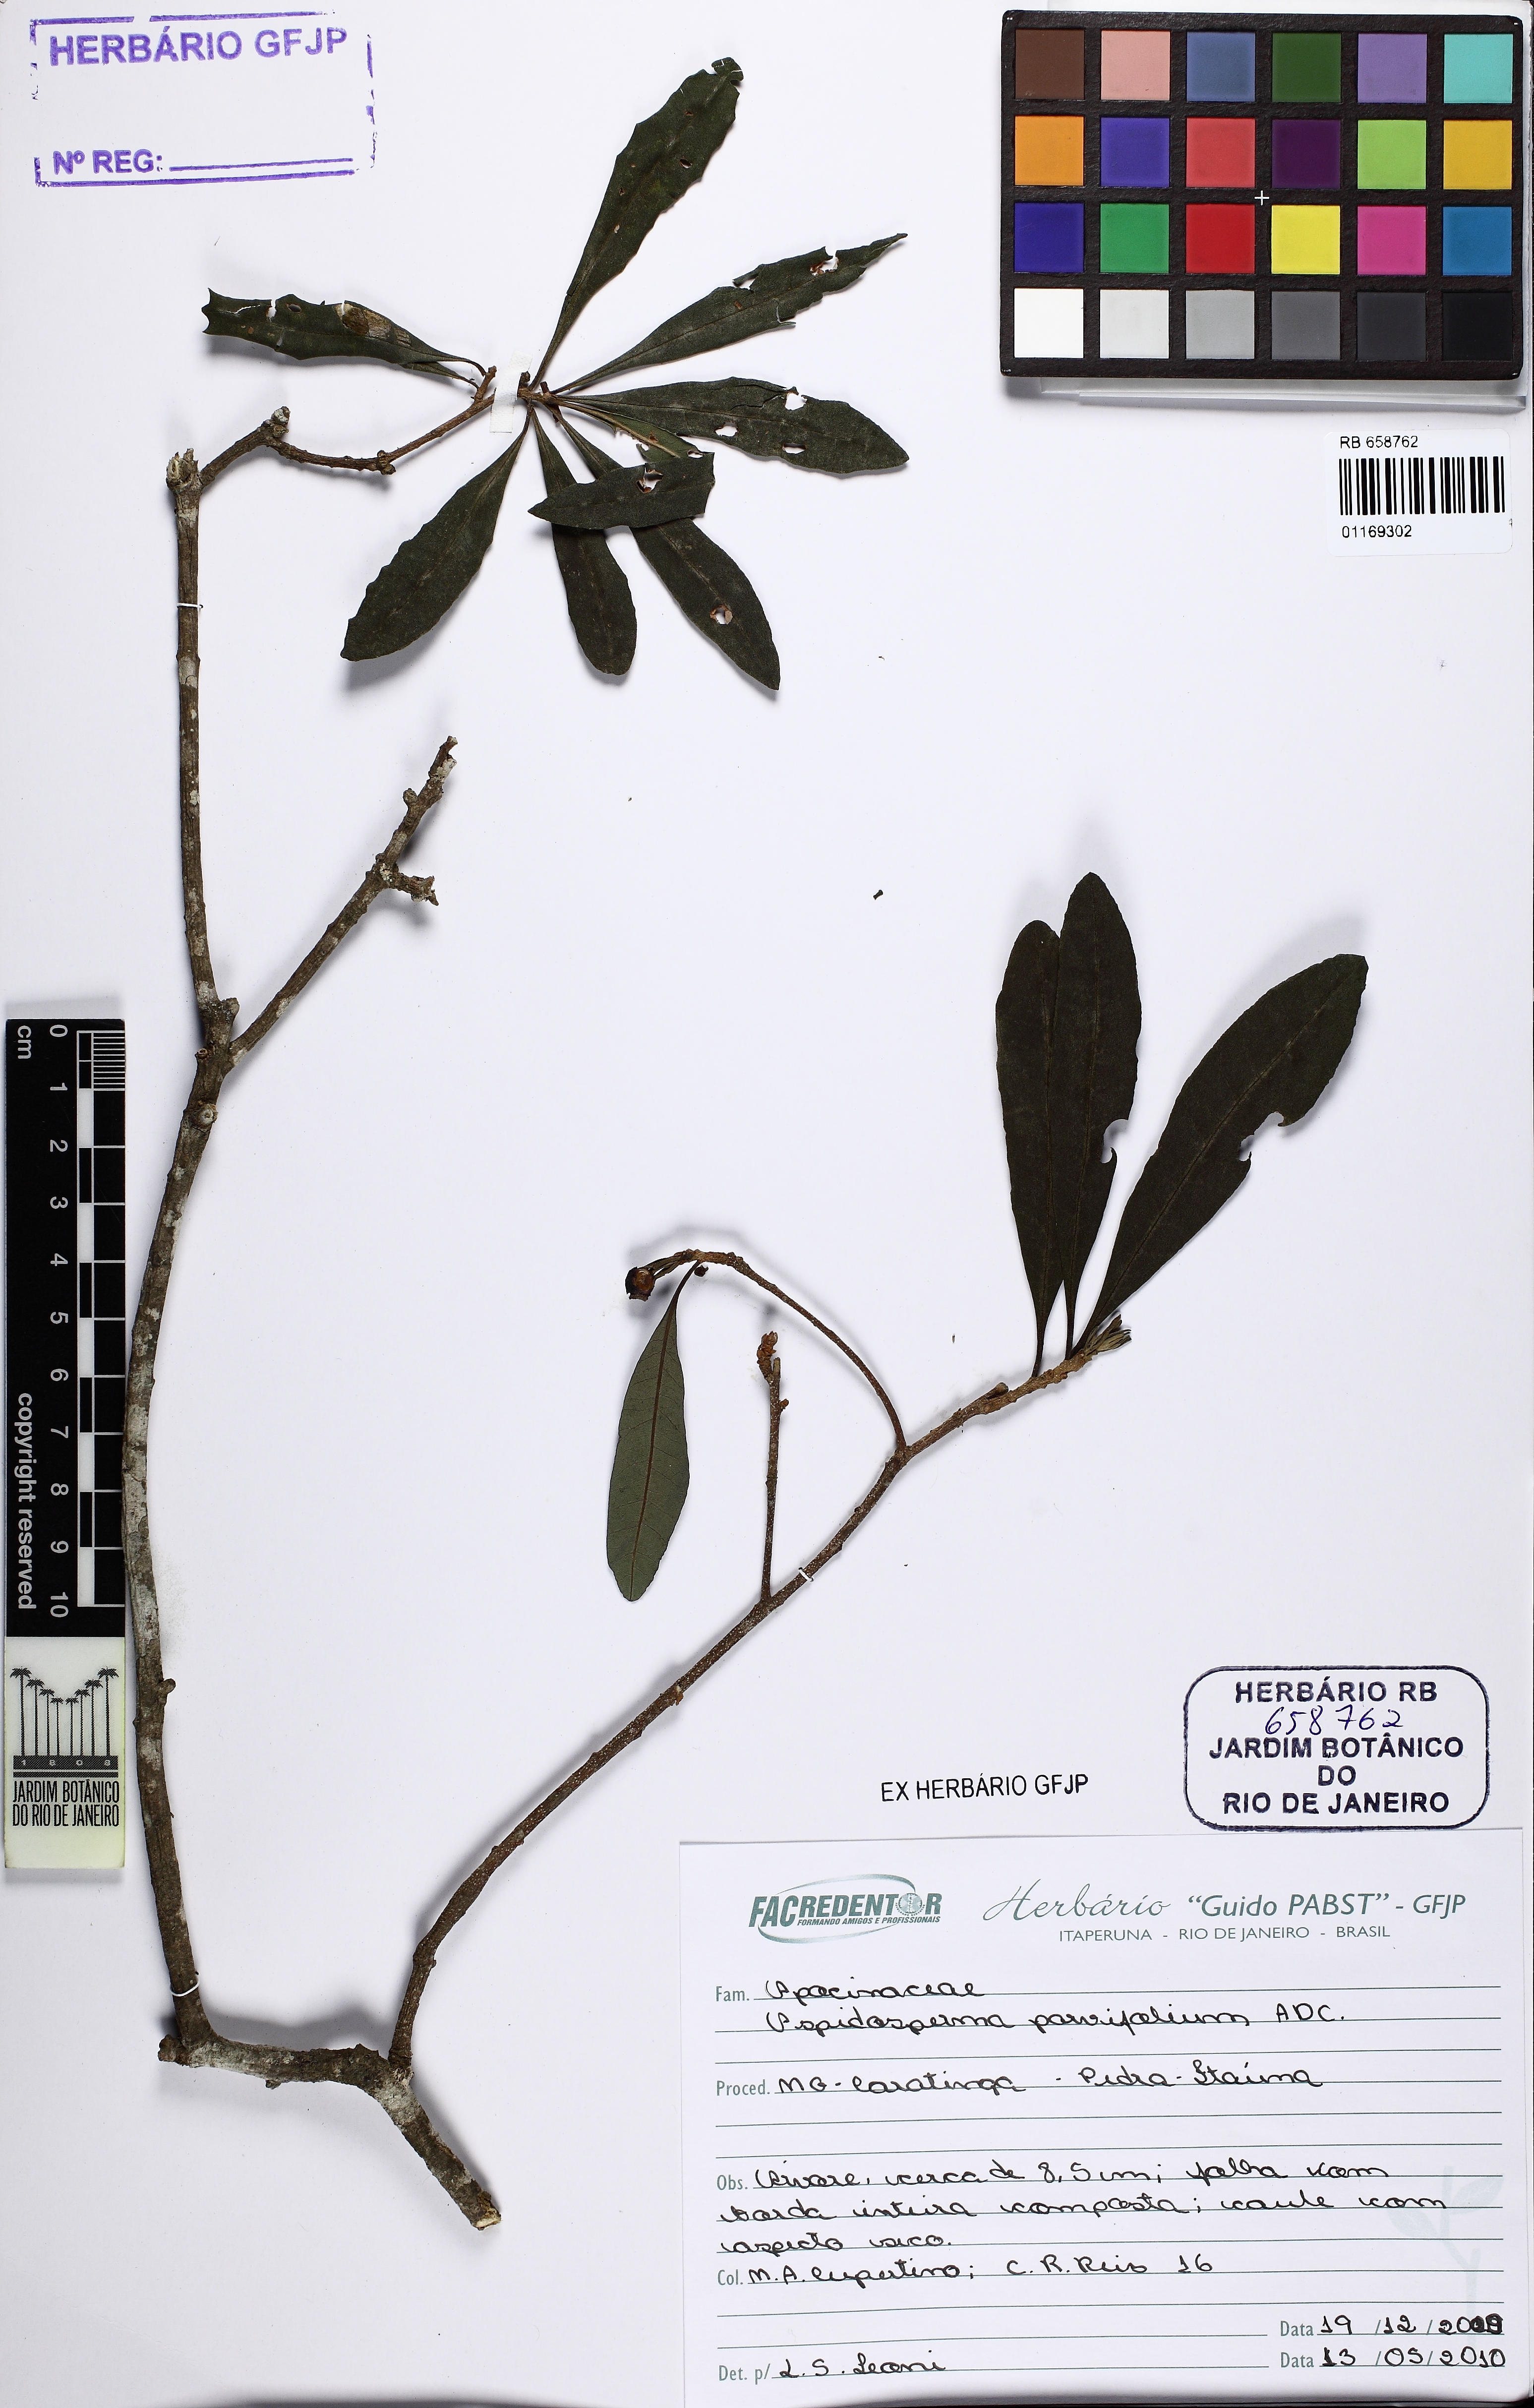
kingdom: Plantae
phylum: Tracheophyta
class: Magnoliopsida
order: Gentianales
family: Apocynaceae
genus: Aspidosperma
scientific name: Aspidosperma parvifolium
